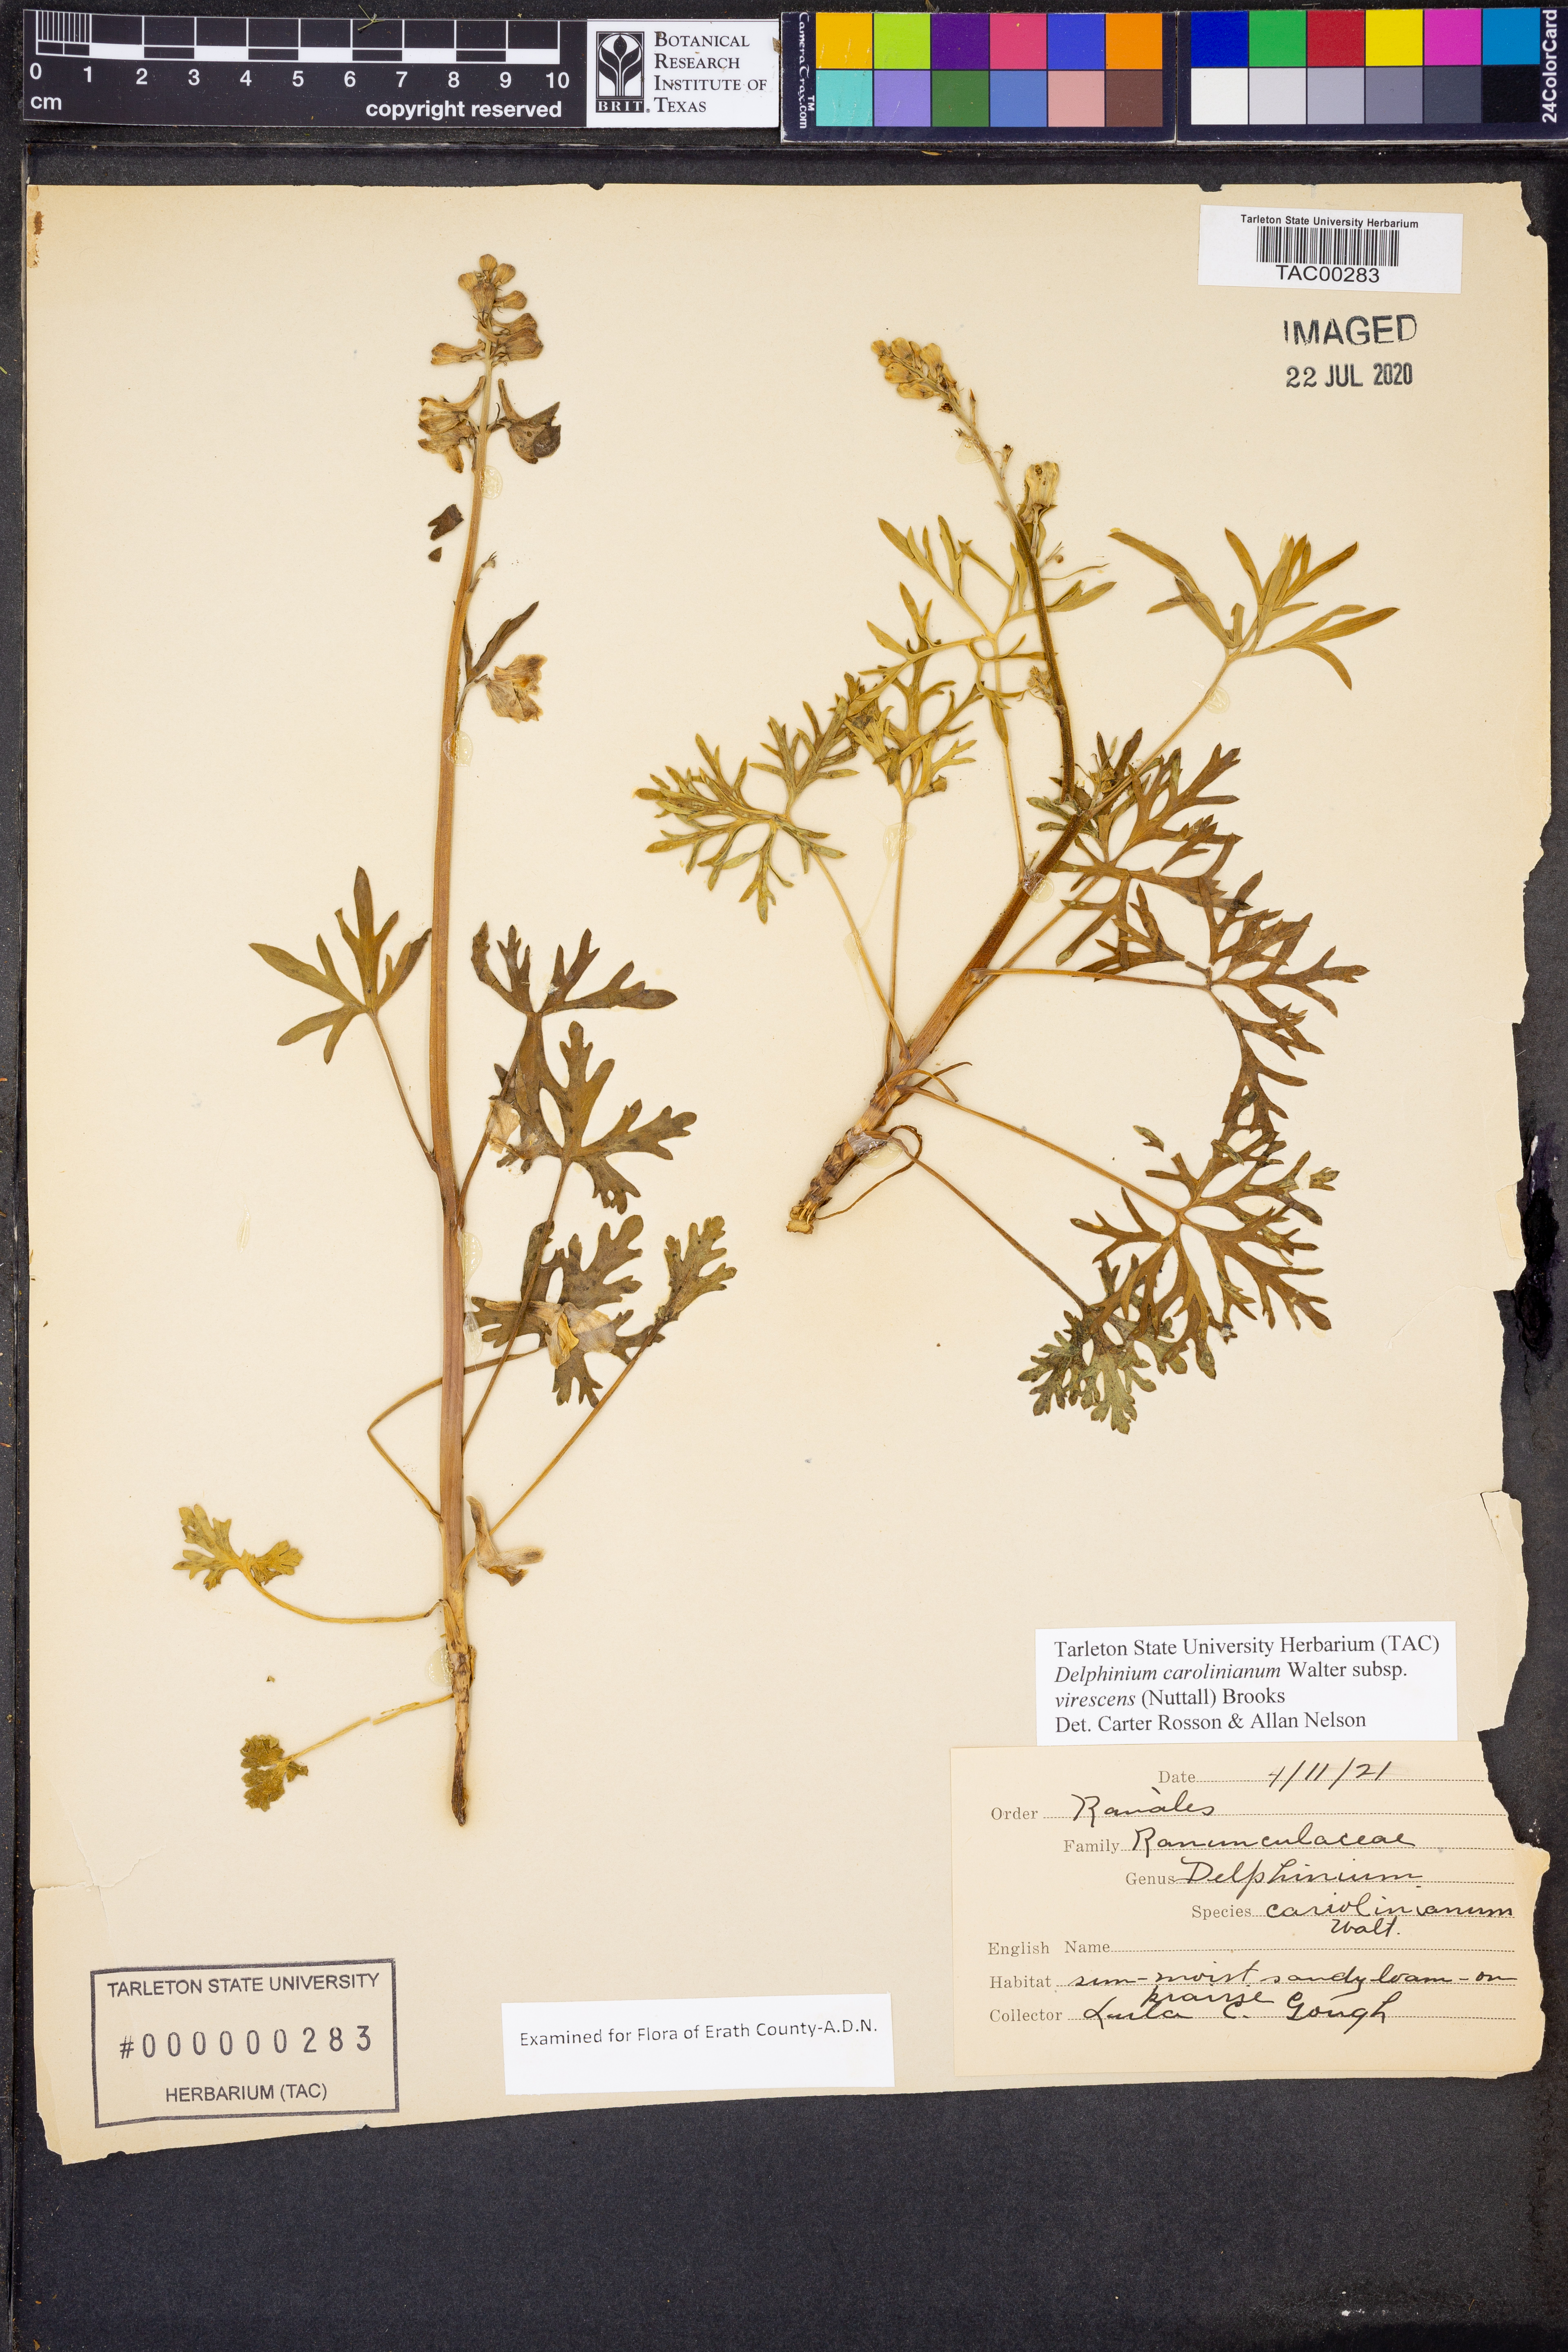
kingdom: Plantae
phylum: Tracheophyta
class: Magnoliopsida
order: Ranunculales
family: Ranunculaceae
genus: Delphinium
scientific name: Delphinium carolinianum
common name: Carolina larkspur
